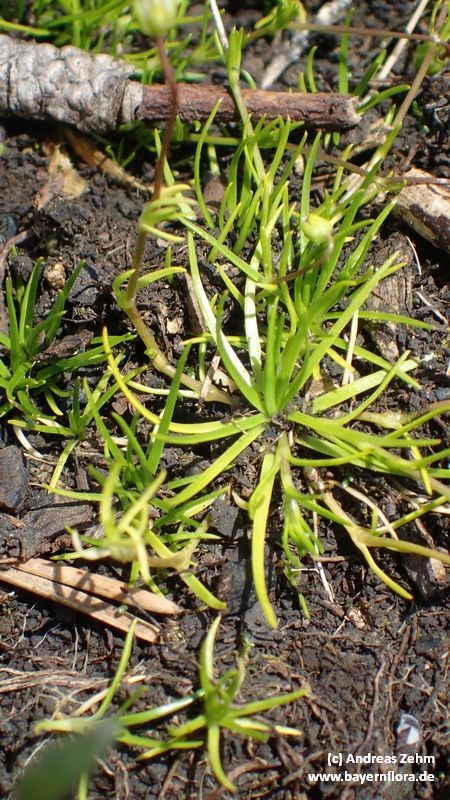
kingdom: Plantae
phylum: Tracheophyta
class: Magnoliopsida
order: Caryophyllales
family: Caryophyllaceae
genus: Sagina
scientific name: Sagina saginoides
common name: Alpine pearlwort
